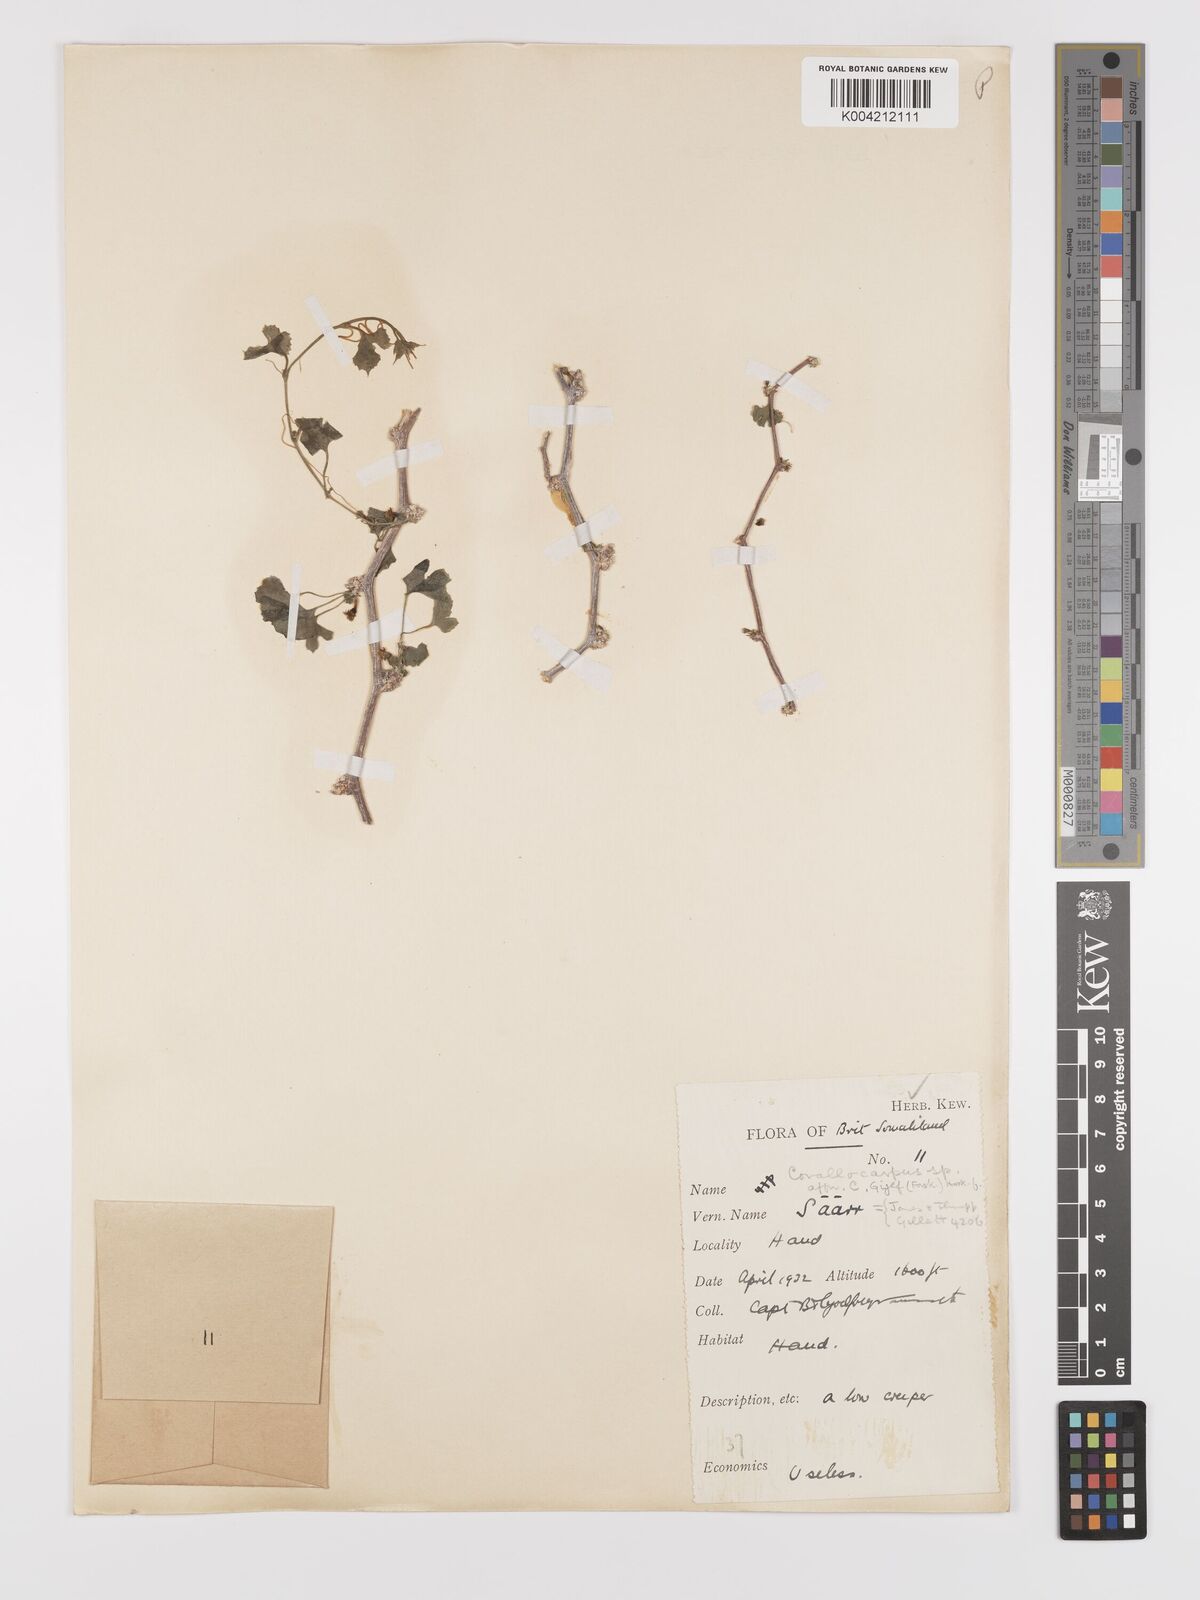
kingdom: Plantae
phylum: Tracheophyta
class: Magnoliopsida
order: Cucurbitales
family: Cucurbitaceae
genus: Kedrostis
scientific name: Kedrostis gijef
